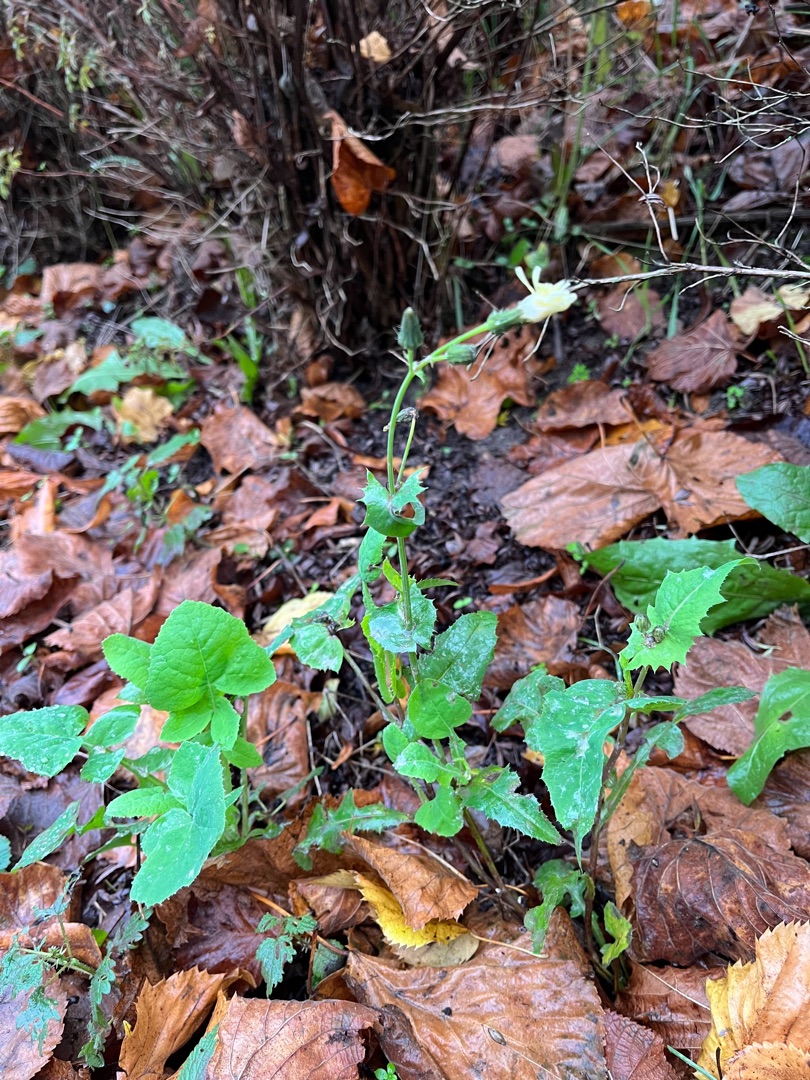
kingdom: Plantae
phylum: Tracheophyta
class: Magnoliopsida
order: Asterales
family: Asteraceae
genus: Sonchus
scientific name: Sonchus oleraceus
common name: Almindelig svinemælk
